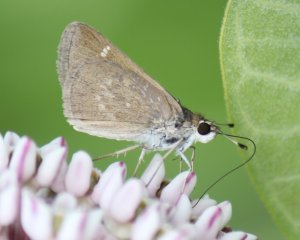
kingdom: Animalia
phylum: Arthropoda
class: Insecta
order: Lepidoptera
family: Hesperiidae
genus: Lerodea
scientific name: Lerodea eufala
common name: Eufala Skipper
